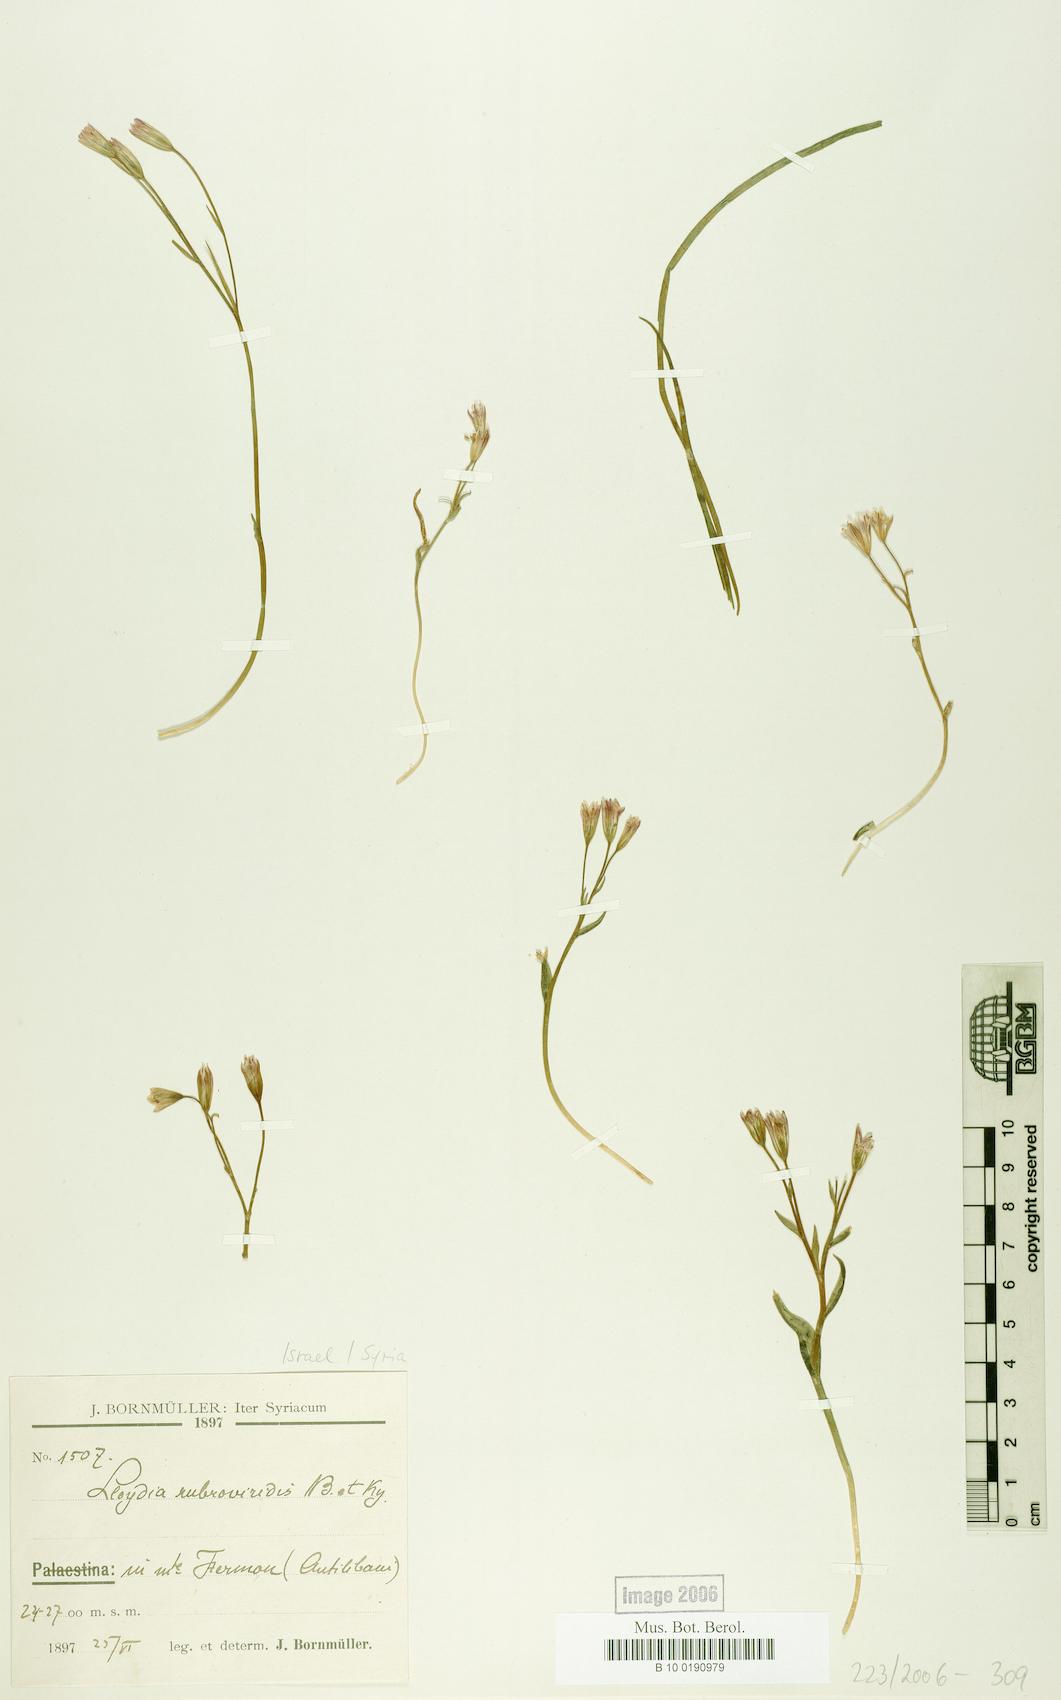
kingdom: Plantae
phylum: Tracheophyta
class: Liliopsida
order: Liliales
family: Liliaceae
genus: Gagea
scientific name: Gagea libanotica
